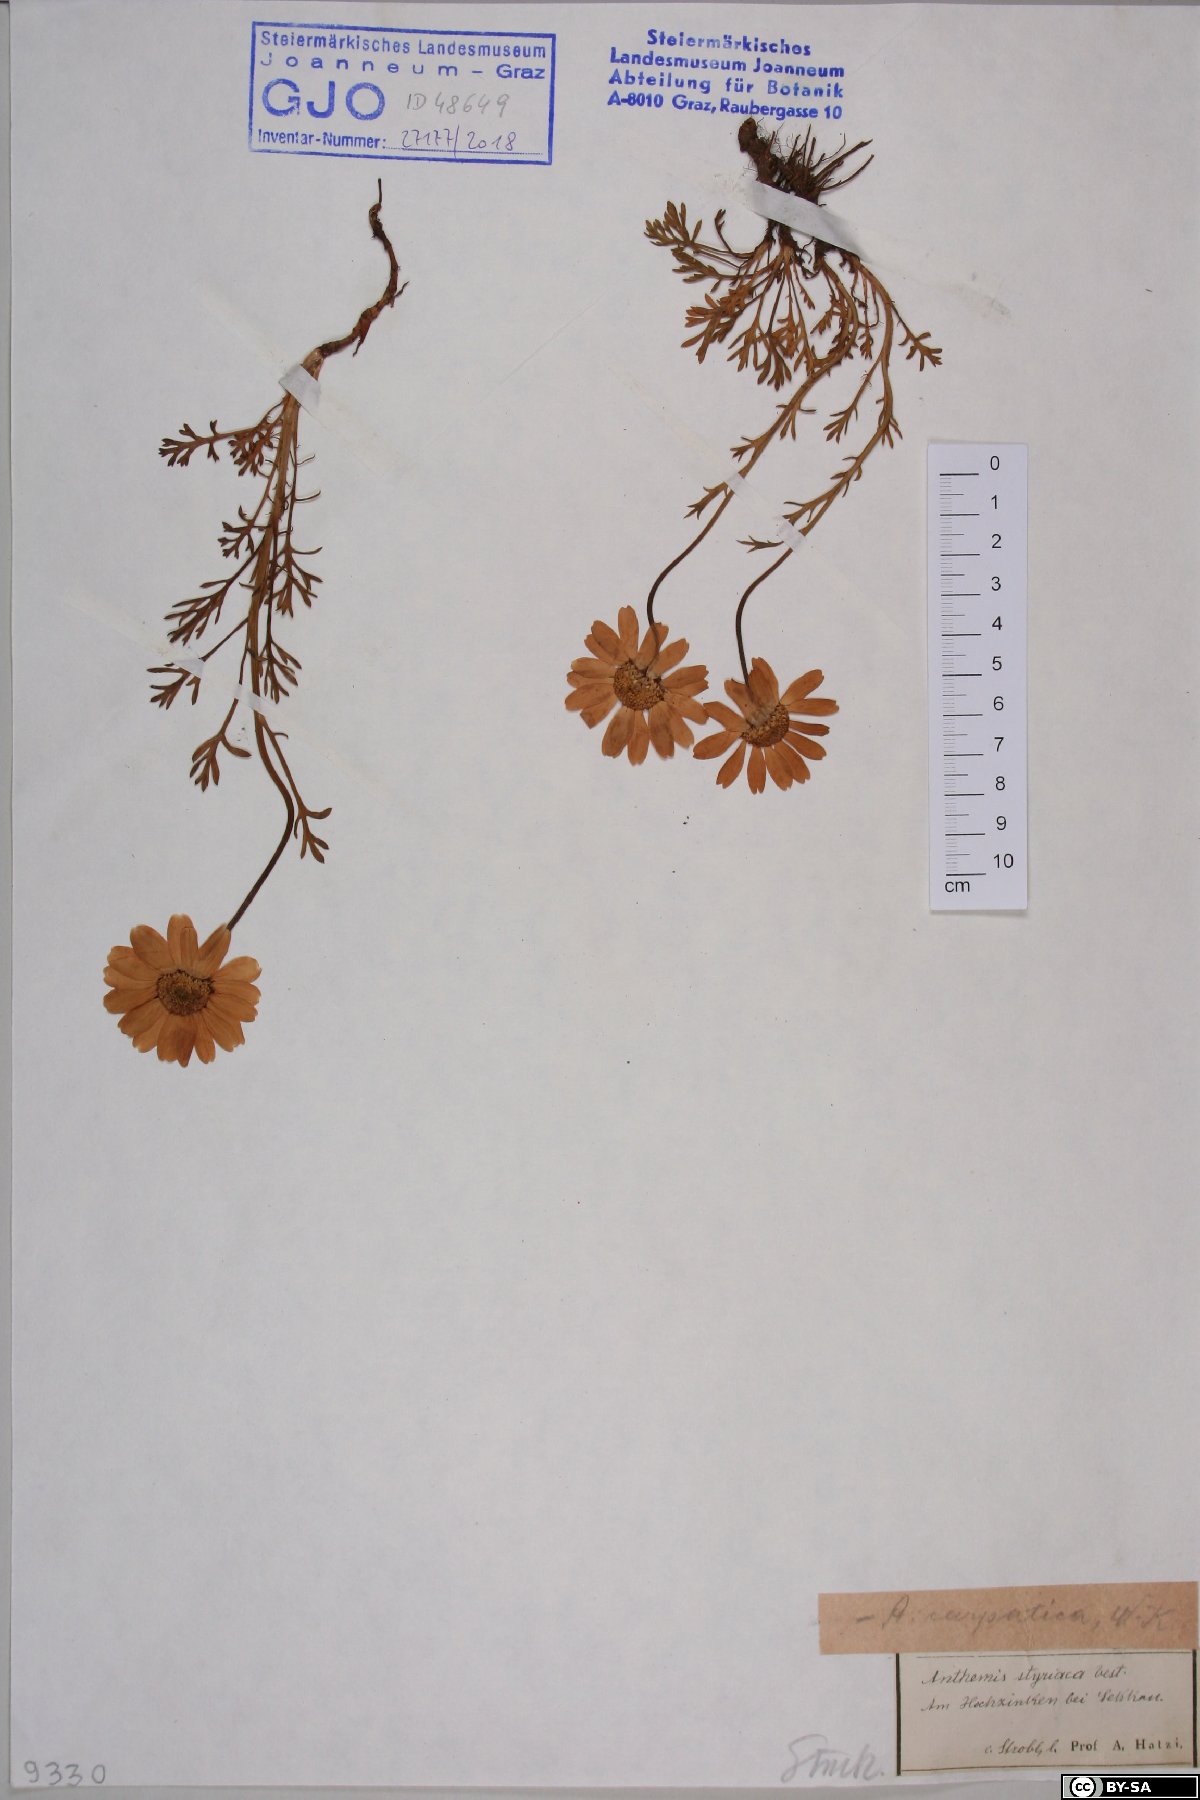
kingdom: Plantae
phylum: Tracheophyta
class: Magnoliopsida
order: Asterales
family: Asteraceae
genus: Anthemis
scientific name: Anthemis cretica
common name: Mountain dog-daisy
